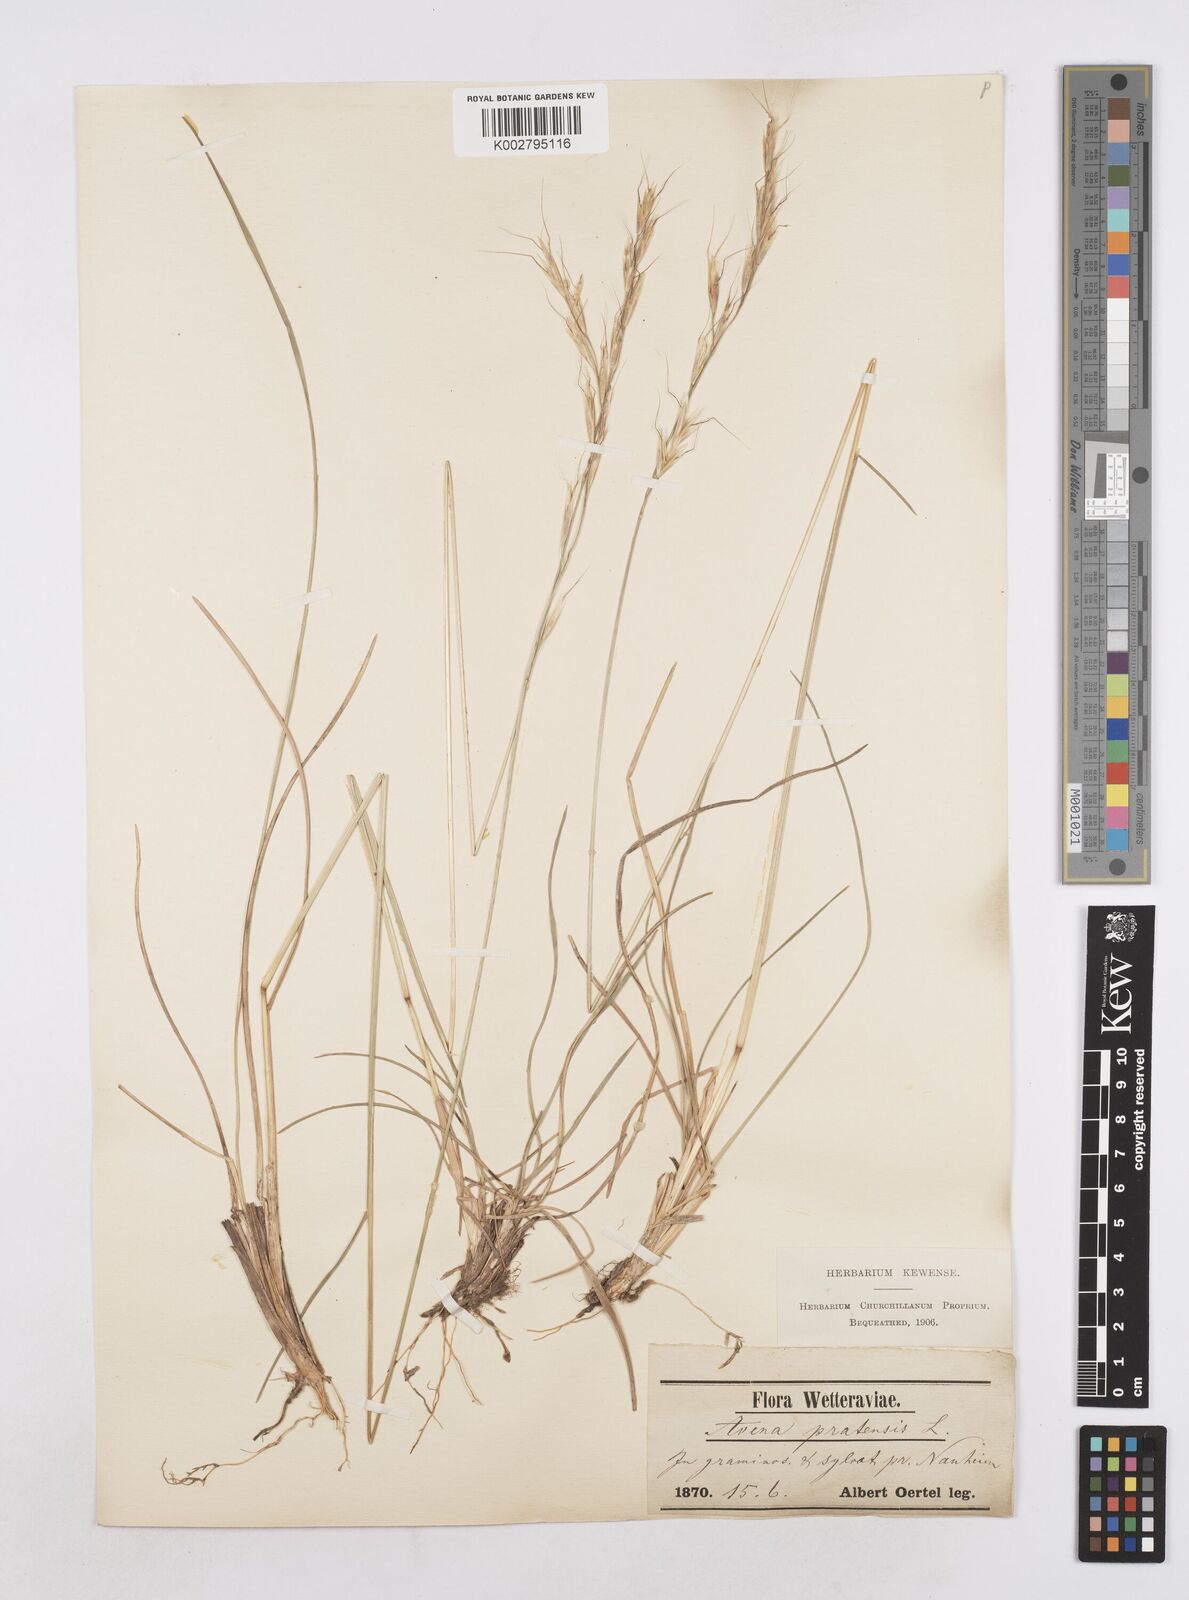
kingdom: Plantae
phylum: Tracheophyta
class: Liliopsida
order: Poales
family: Poaceae
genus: Helictochloa
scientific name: Helictochloa pratensis
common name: Meadow oat grass
